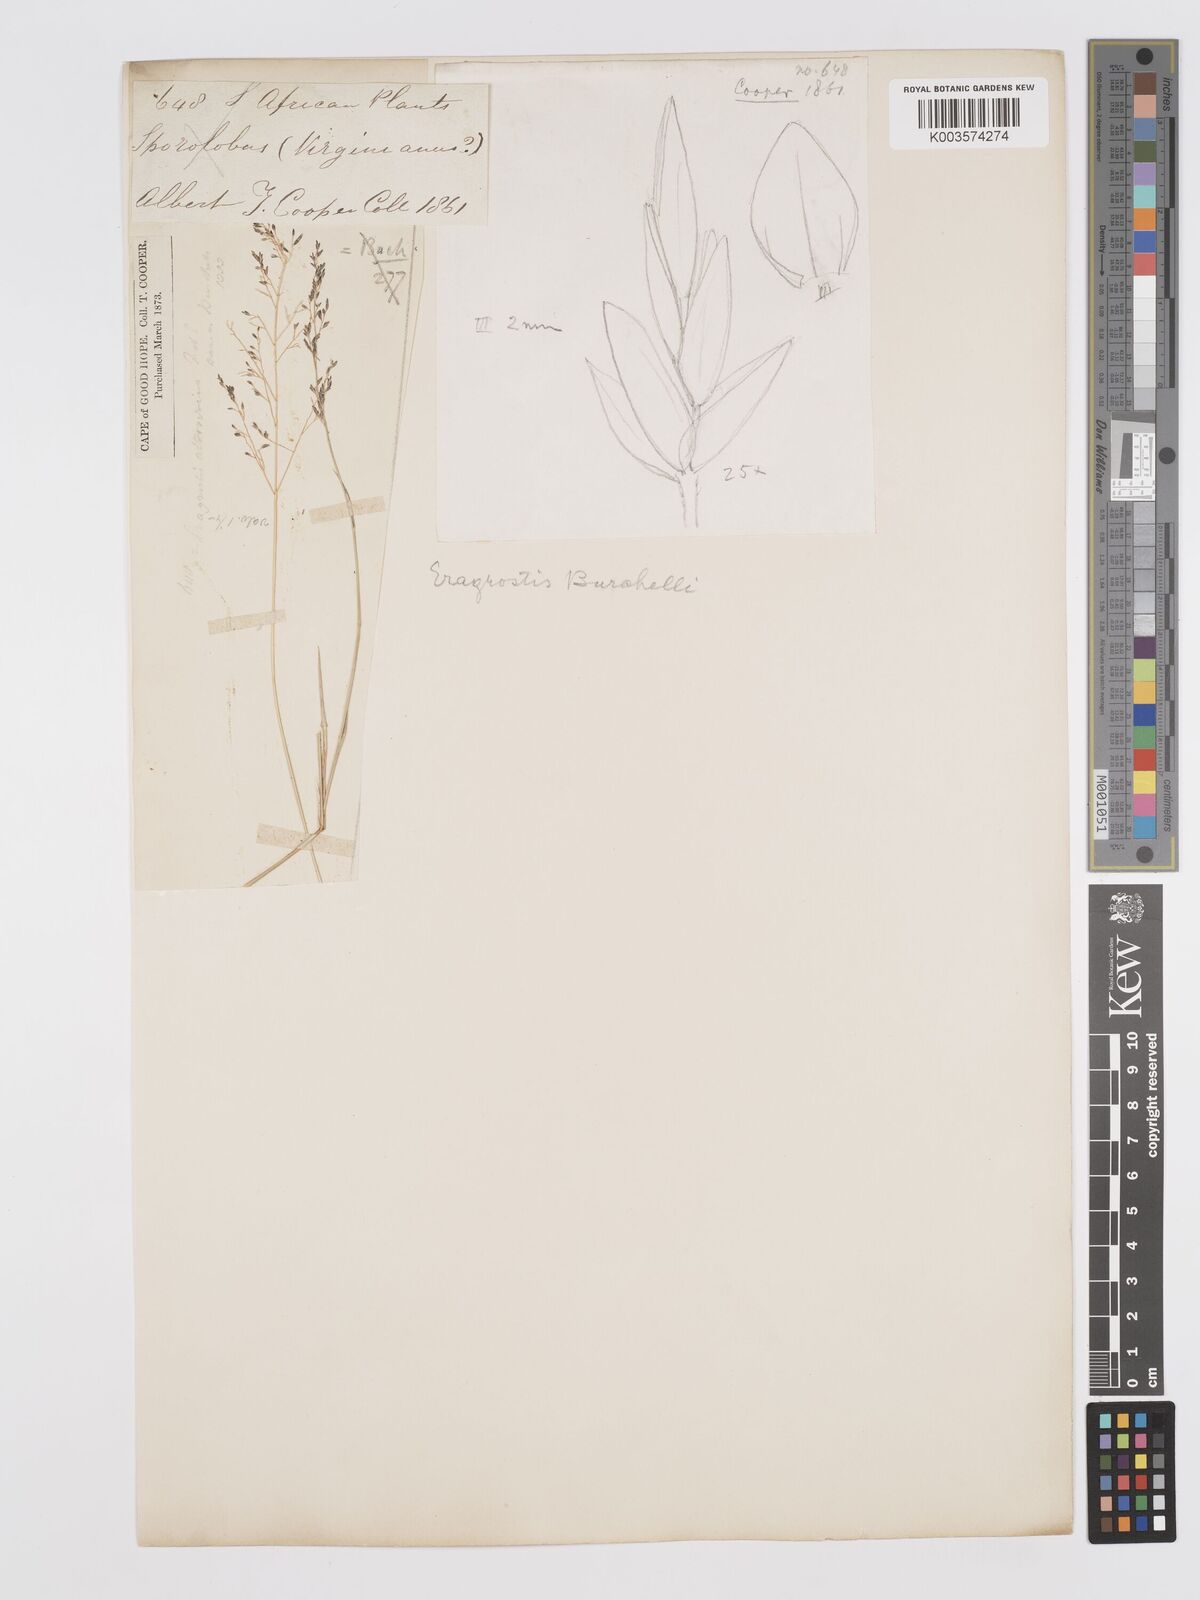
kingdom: Plantae
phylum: Tracheophyta
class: Liliopsida
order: Poales
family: Poaceae
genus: Eragrostis
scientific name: Eragrostis micrantha
